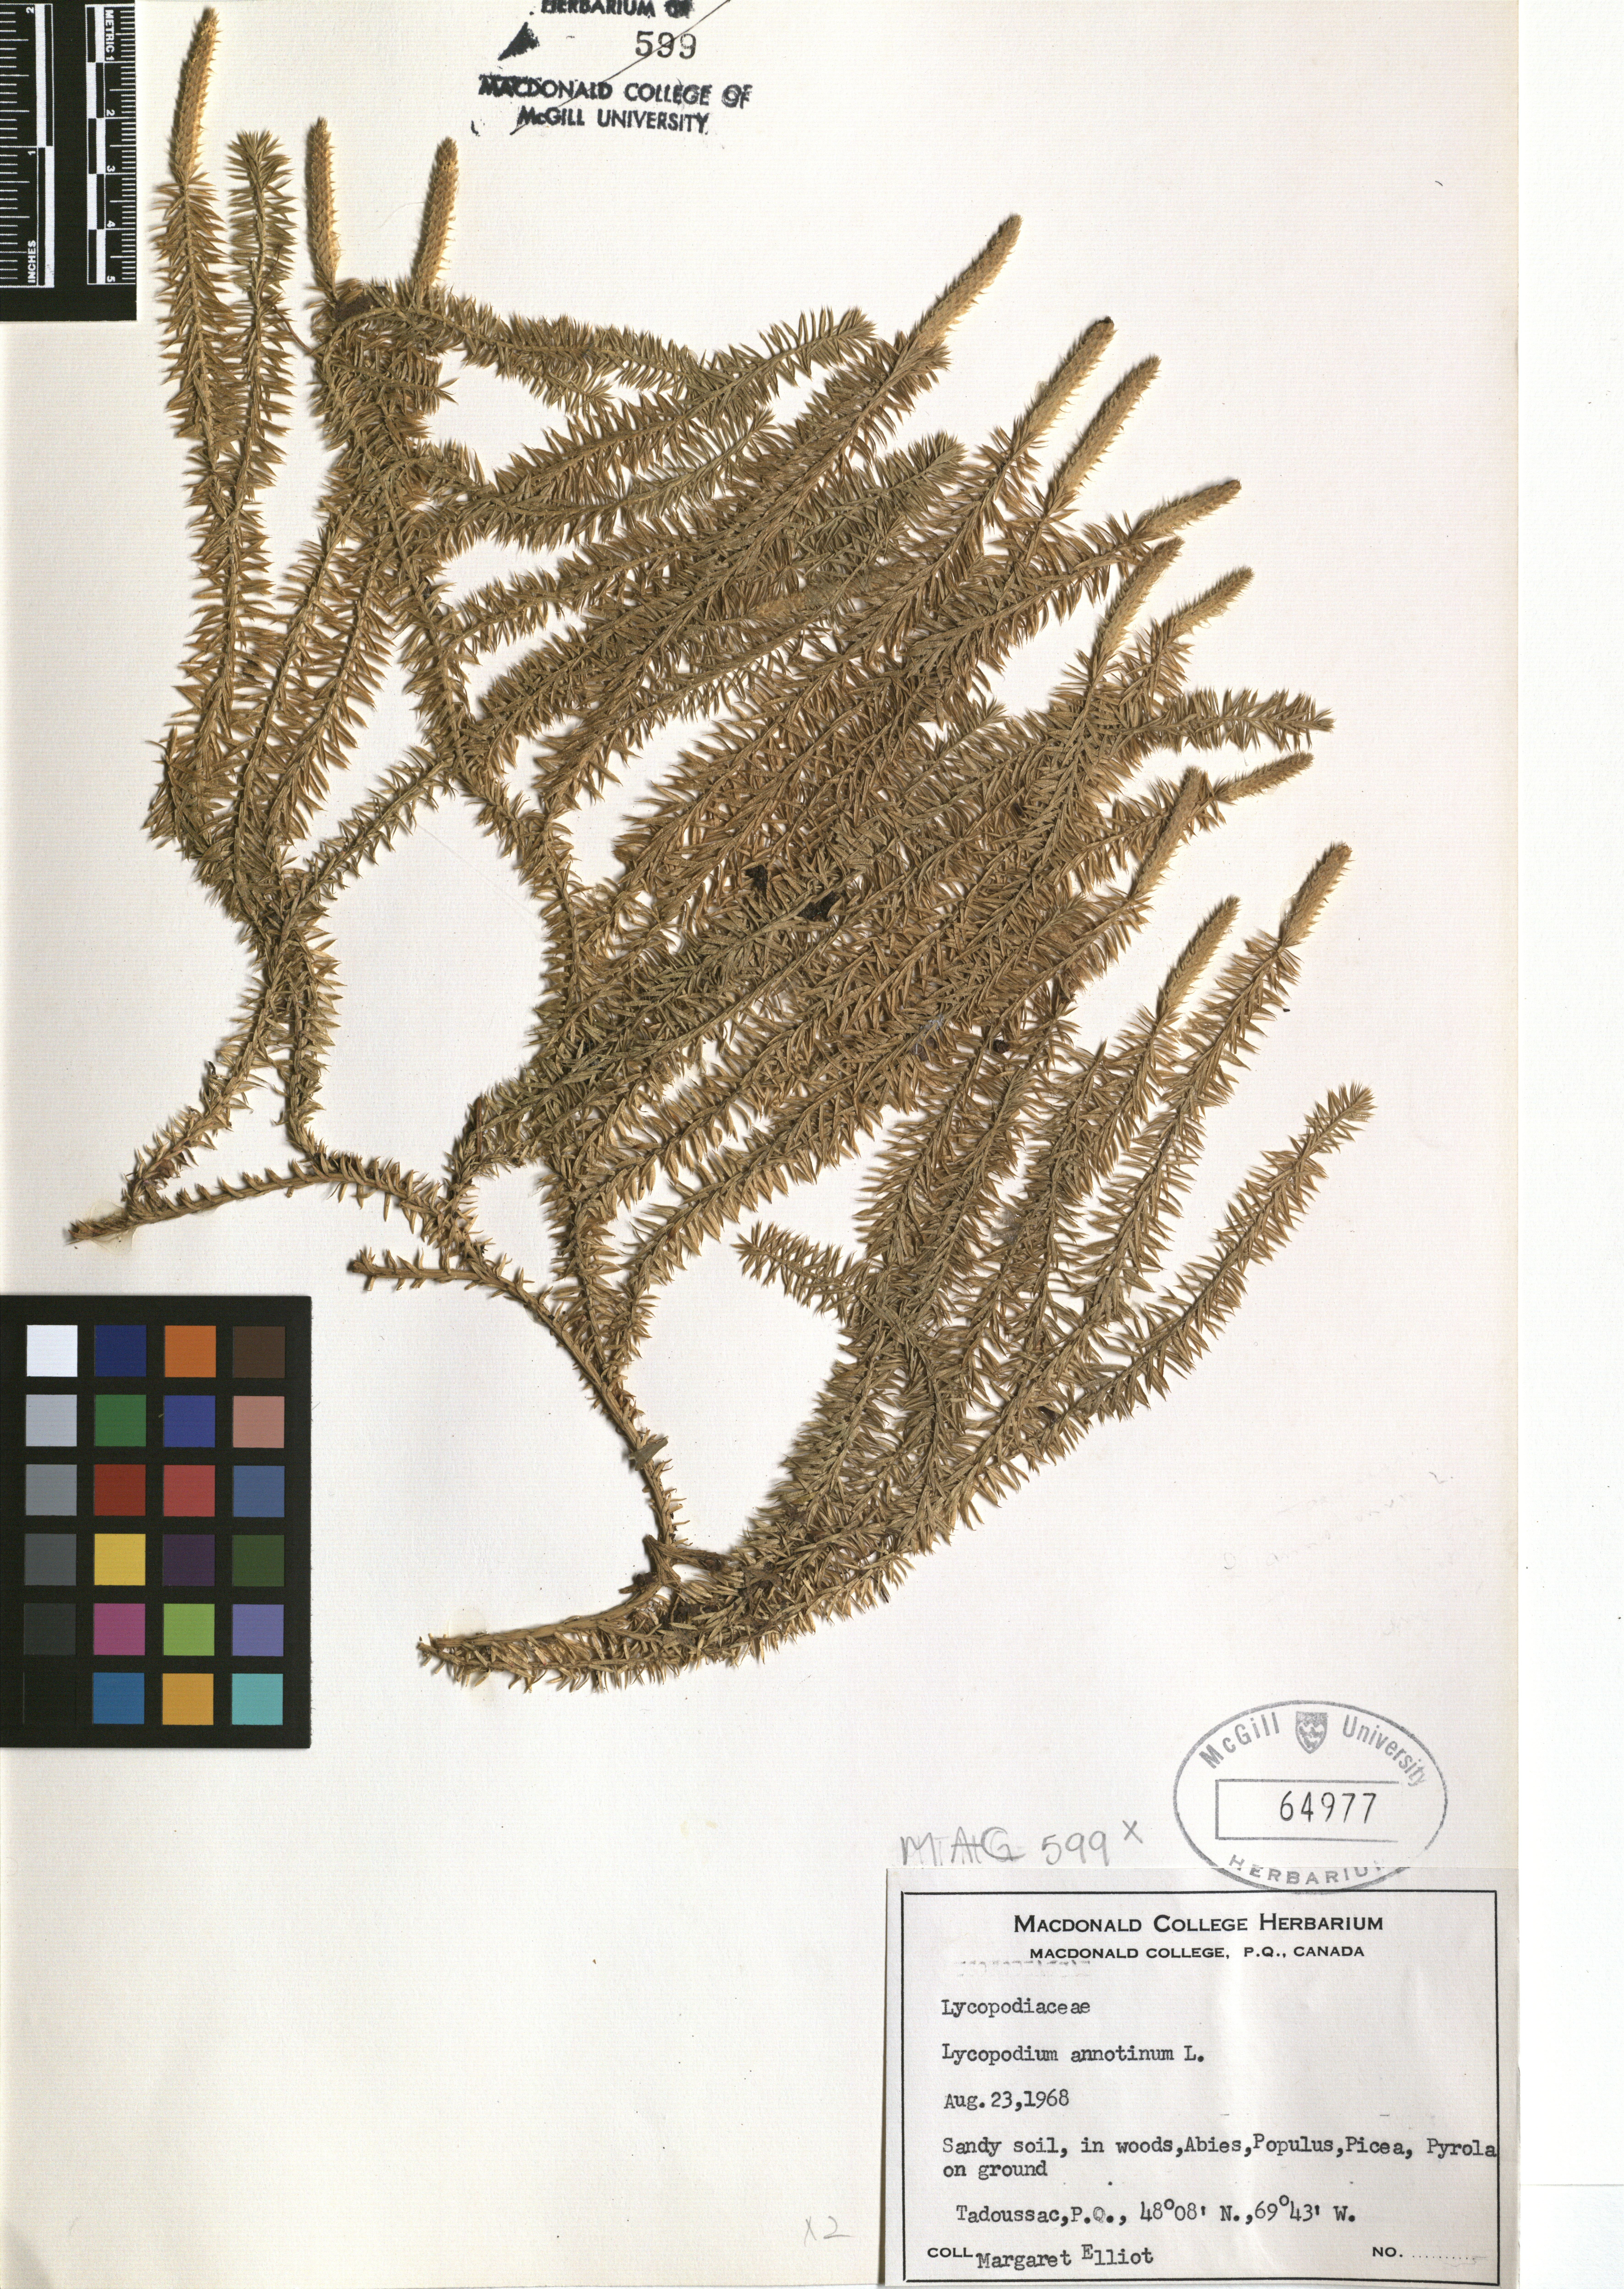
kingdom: Plantae
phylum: Tracheophyta
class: Lycopodiopsida
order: Lycopodiales
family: Lycopodiaceae
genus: Spinulum
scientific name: Spinulum annotinum
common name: Interrupted club-moss
